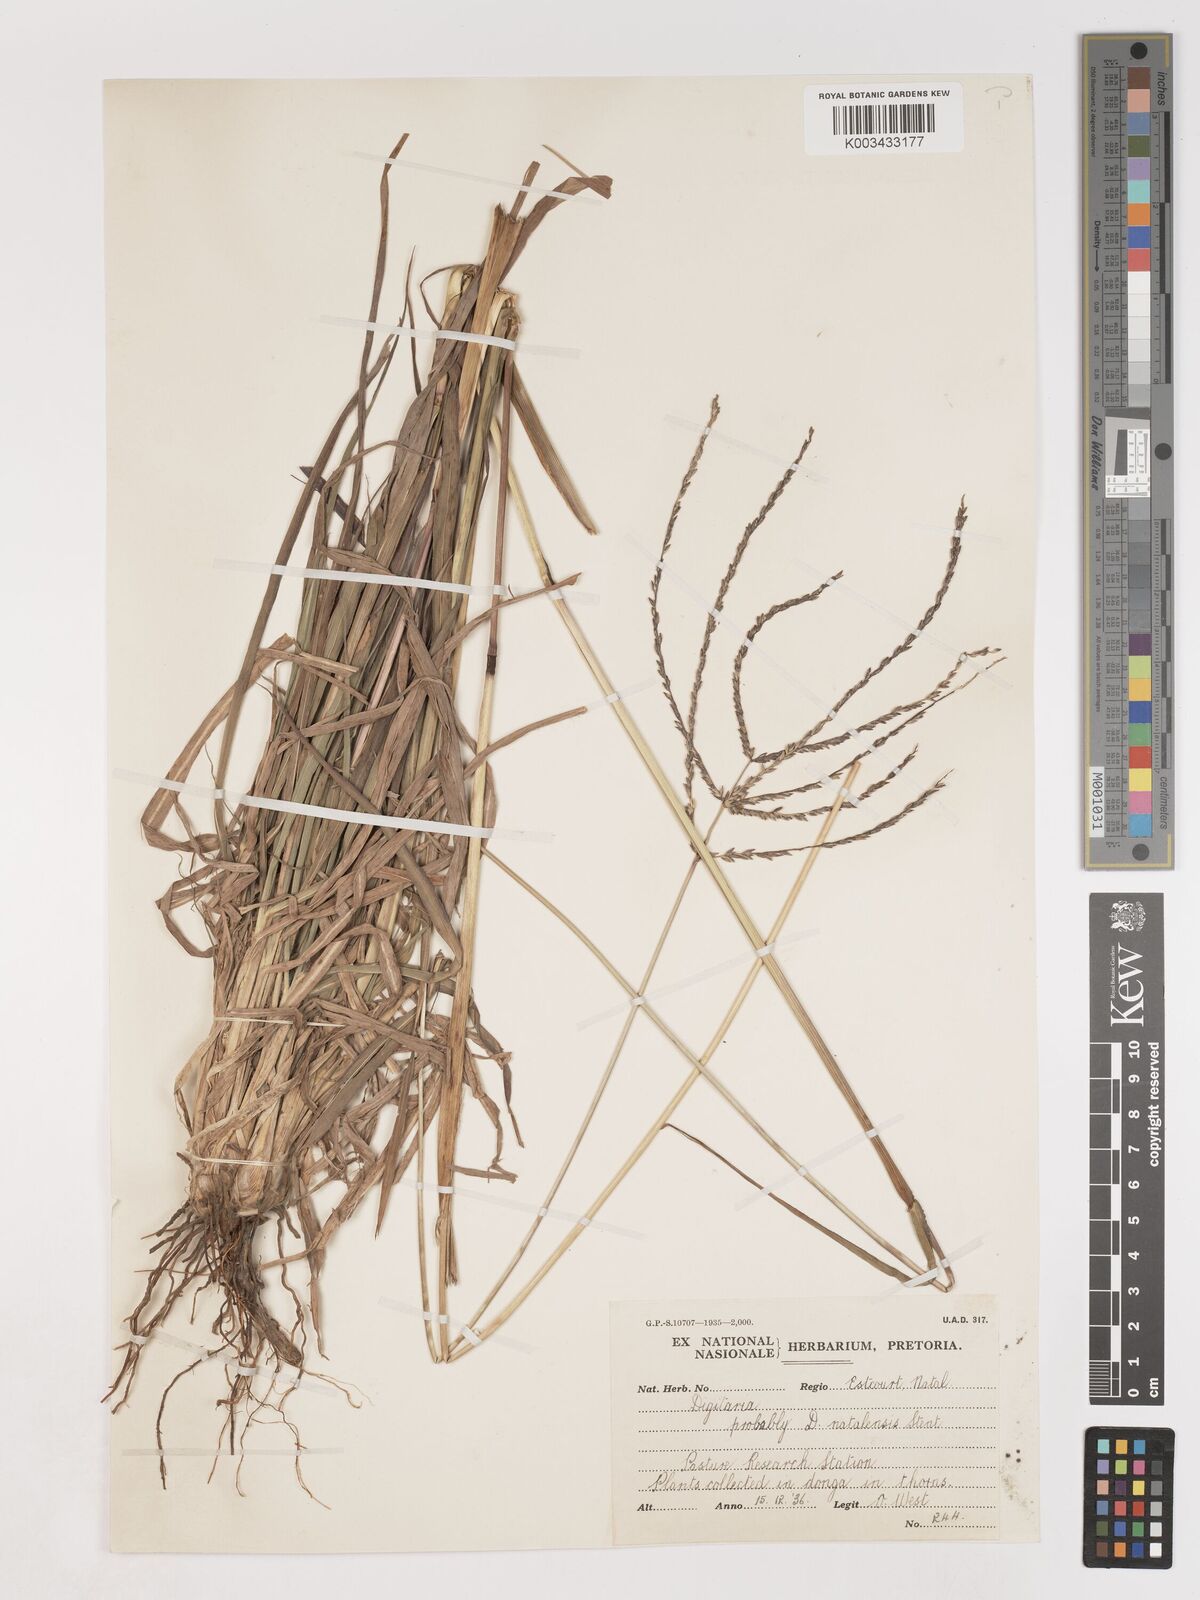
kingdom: Plantae
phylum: Tracheophyta
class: Liliopsida
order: Poales
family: Poaceae
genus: Digitaria
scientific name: Digitaria milanjiana
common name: Madagascar crabgrass
